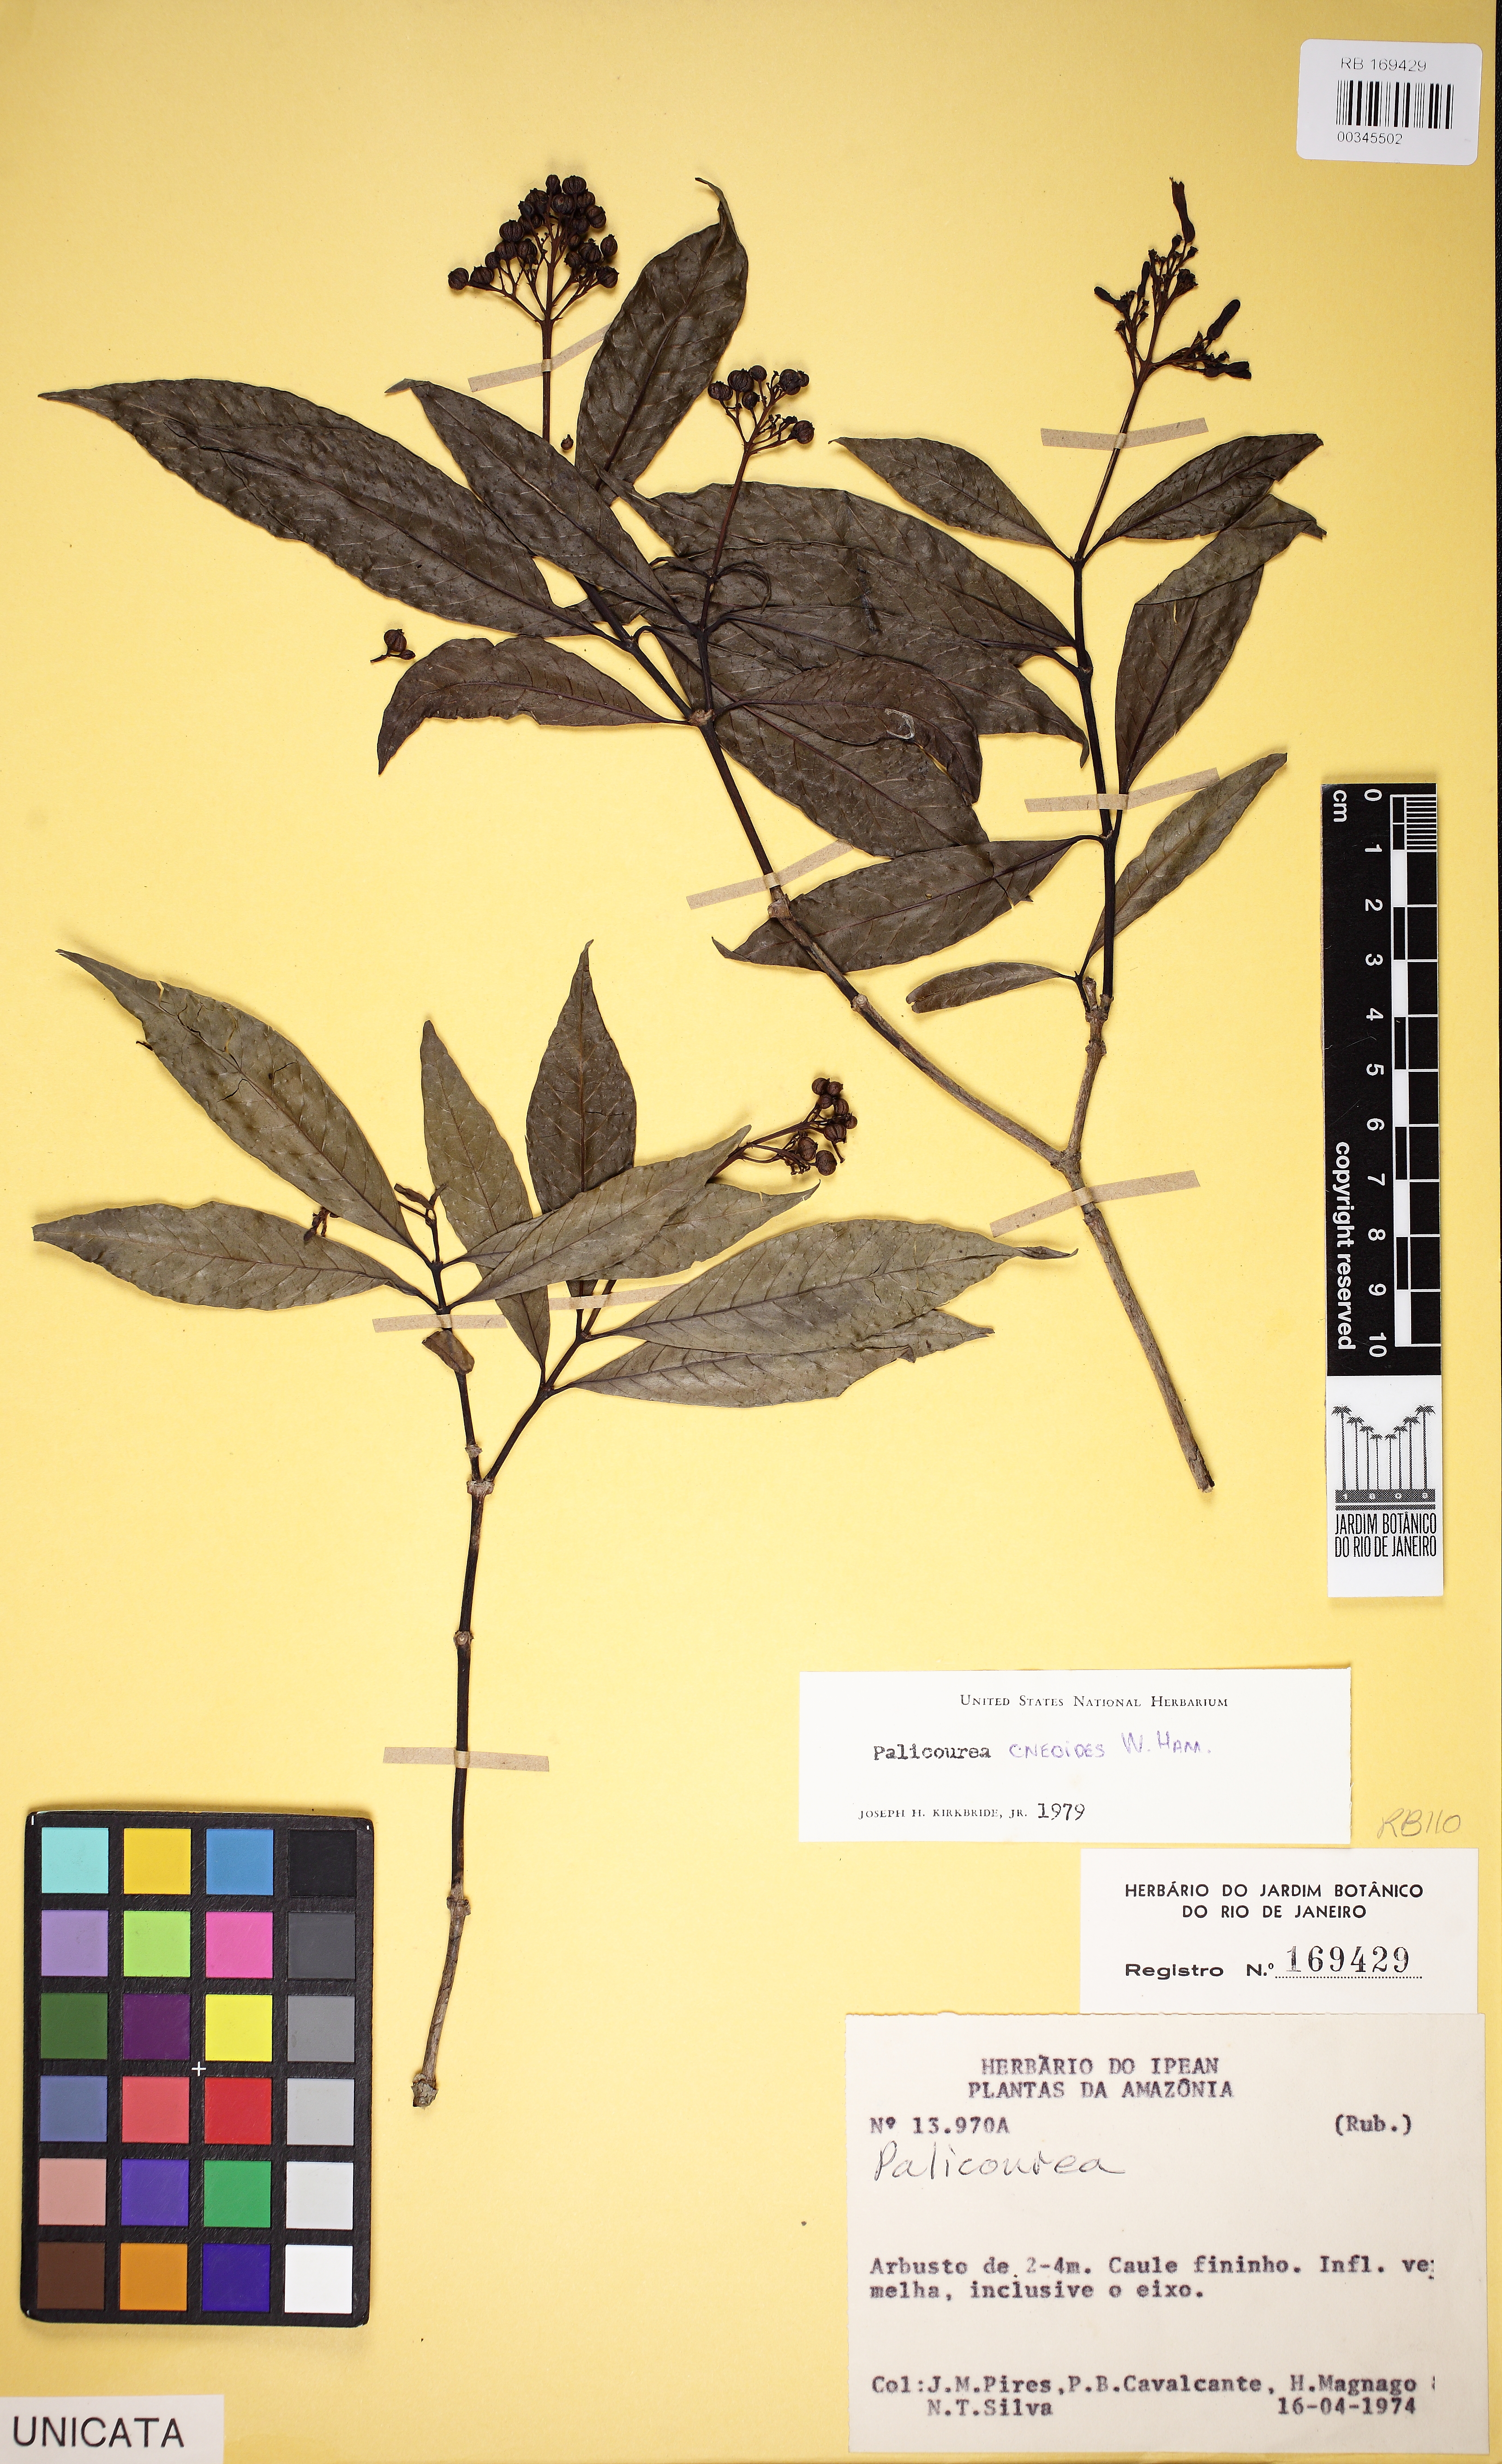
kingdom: Plantae
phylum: Tracheophyta
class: Magnoliopsida
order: Gentianales
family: Rubiaceae
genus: Palicourea
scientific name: Palicourea
